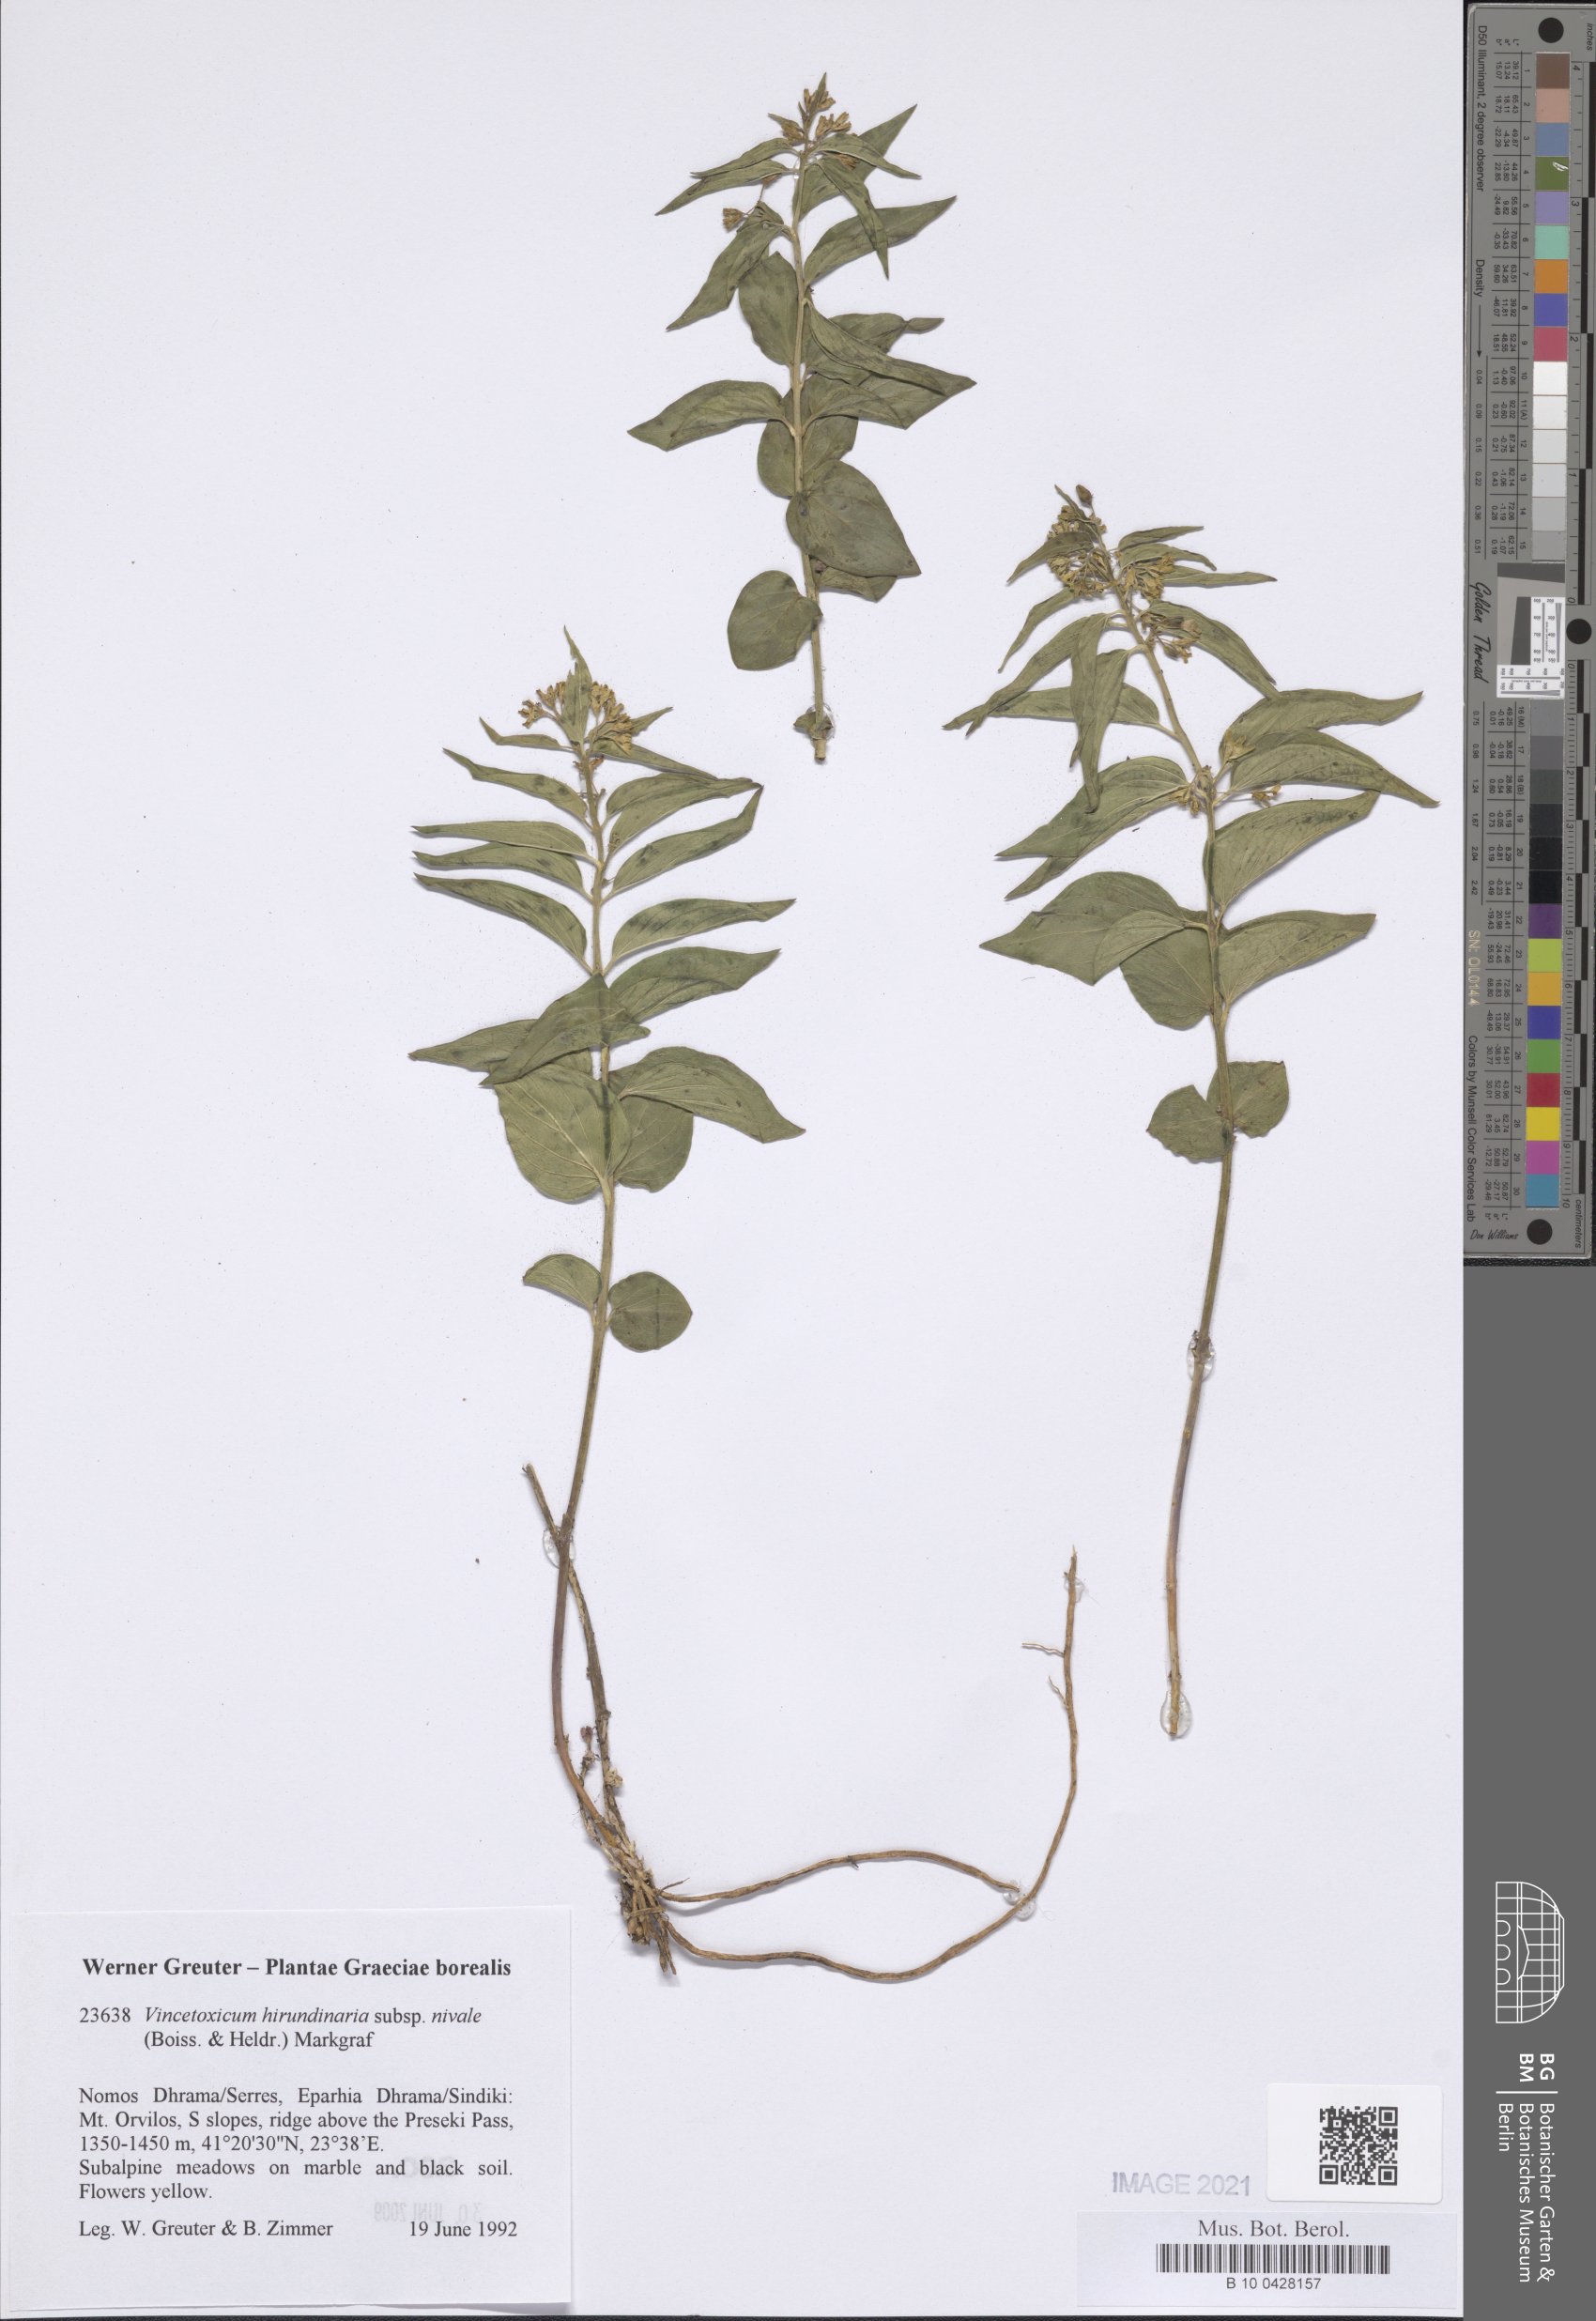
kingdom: Plantae
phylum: Tracheophyta
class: Magnoliopsida
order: Gentianales
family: Apocynaceae
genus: Vincetoxicum
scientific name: Vincetoxicum hirundinaria
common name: White swallowwort
